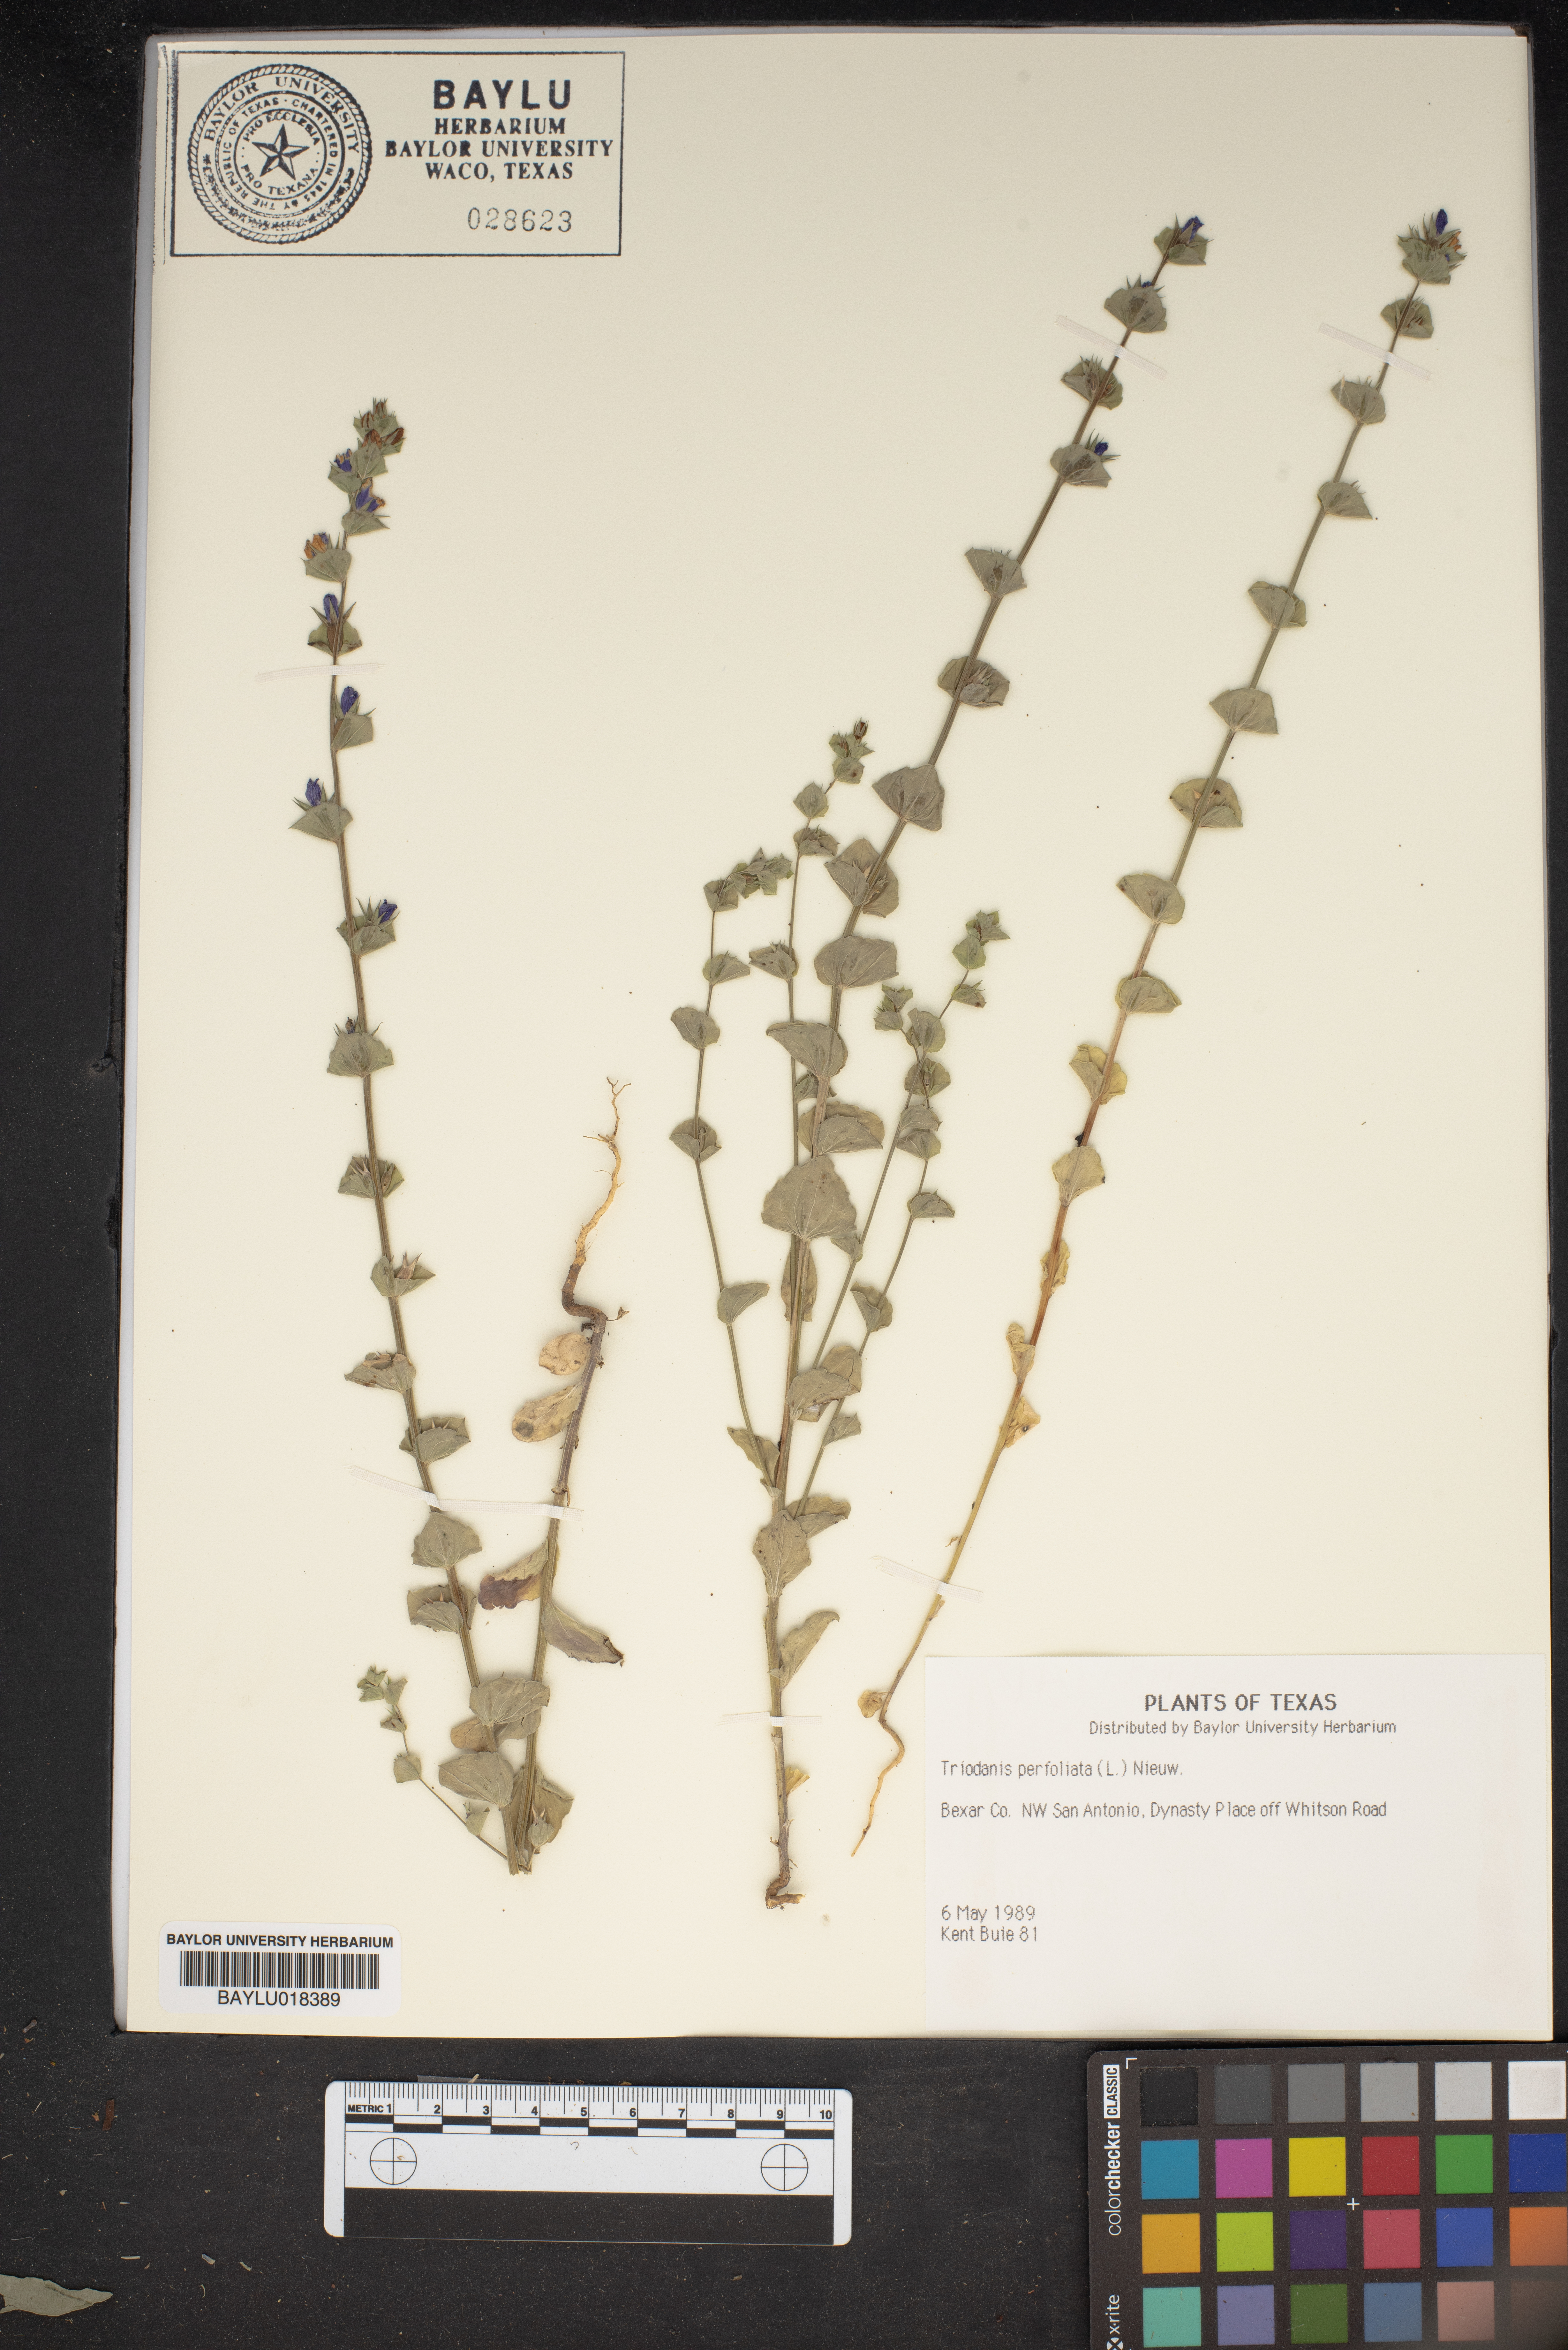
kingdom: Plantae
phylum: Tracheophyta
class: Magnoliopsida
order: Asterales
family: Campanulaceae
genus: Triodanis
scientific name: Triodanis perfoliata
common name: Clasping venus' looking-glass
